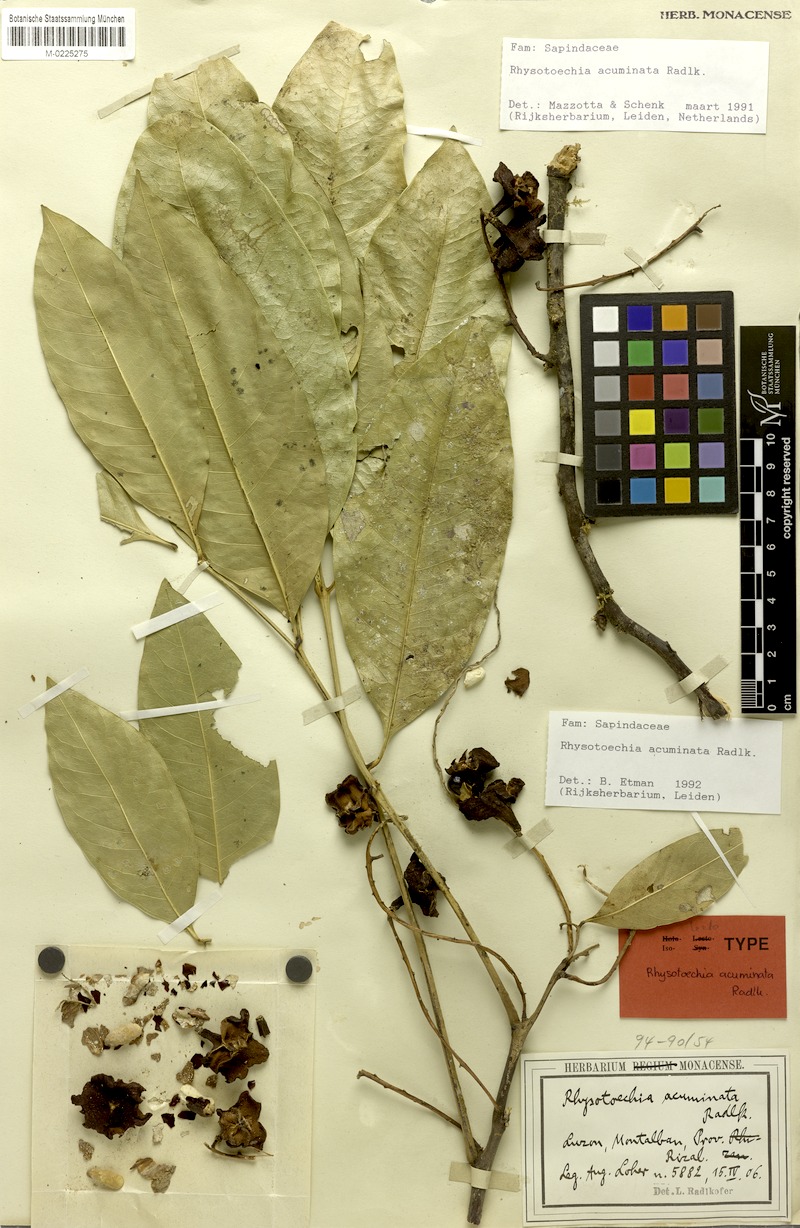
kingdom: Plantae
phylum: Tracheophyta
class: Magnoliopsida
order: Sapindales
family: Sapindaceae
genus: Rhysotoechia
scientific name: Rhysotoechia ramiflora
